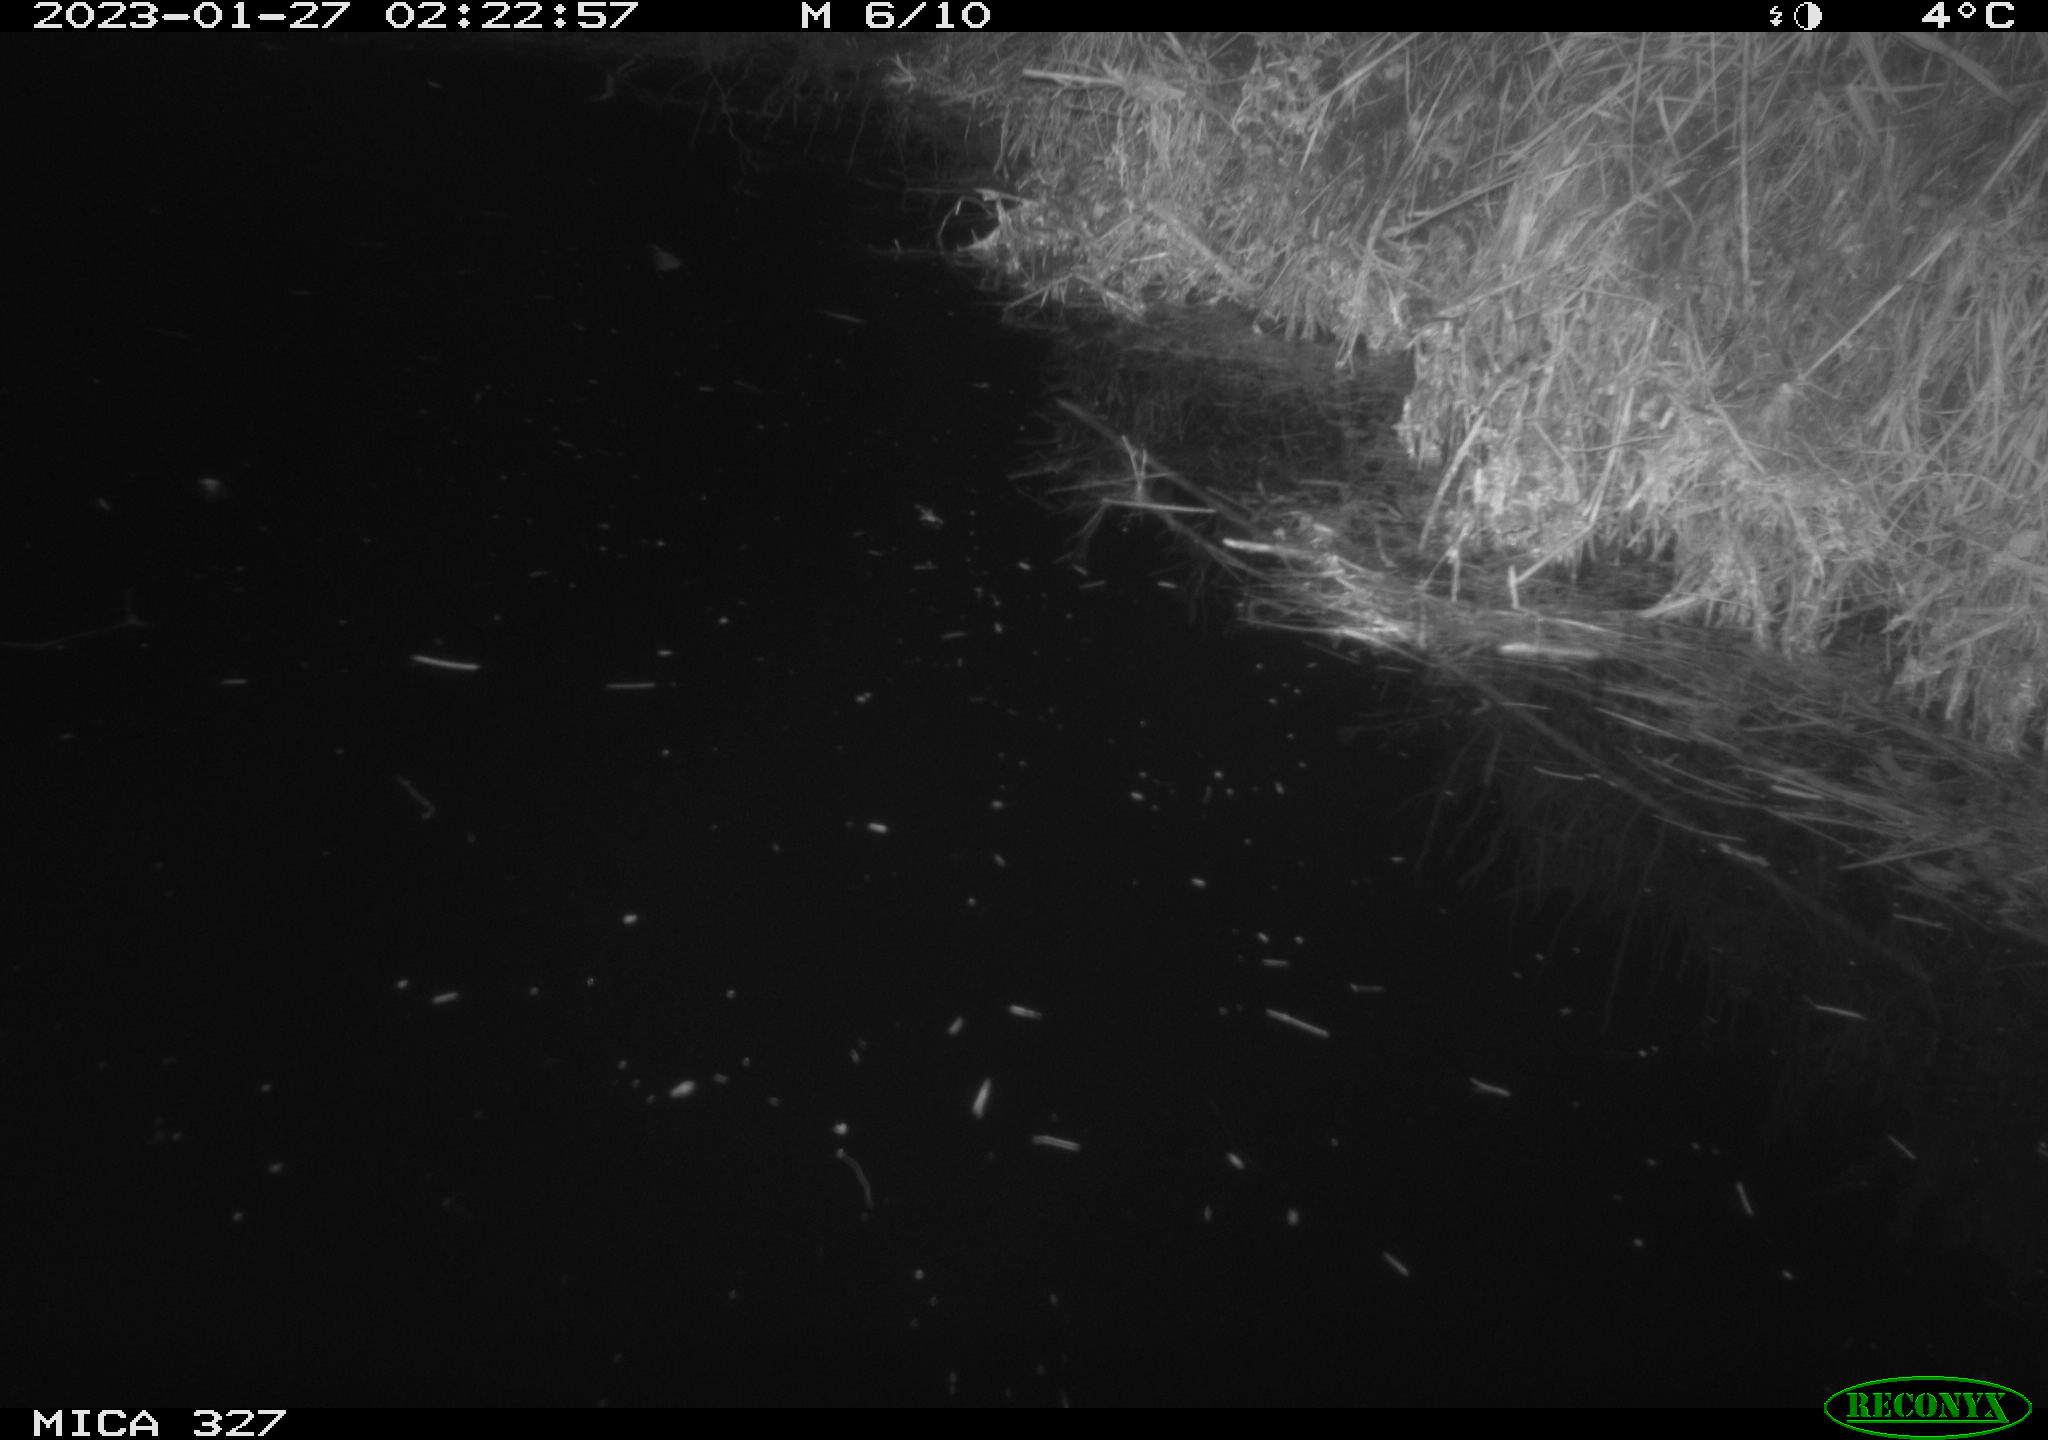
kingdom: Animalia
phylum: Chordata
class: Mammalia
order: Rodentia
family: Cricetidae
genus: Ondatra
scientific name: Ondatra zibethicus
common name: Muskrat
